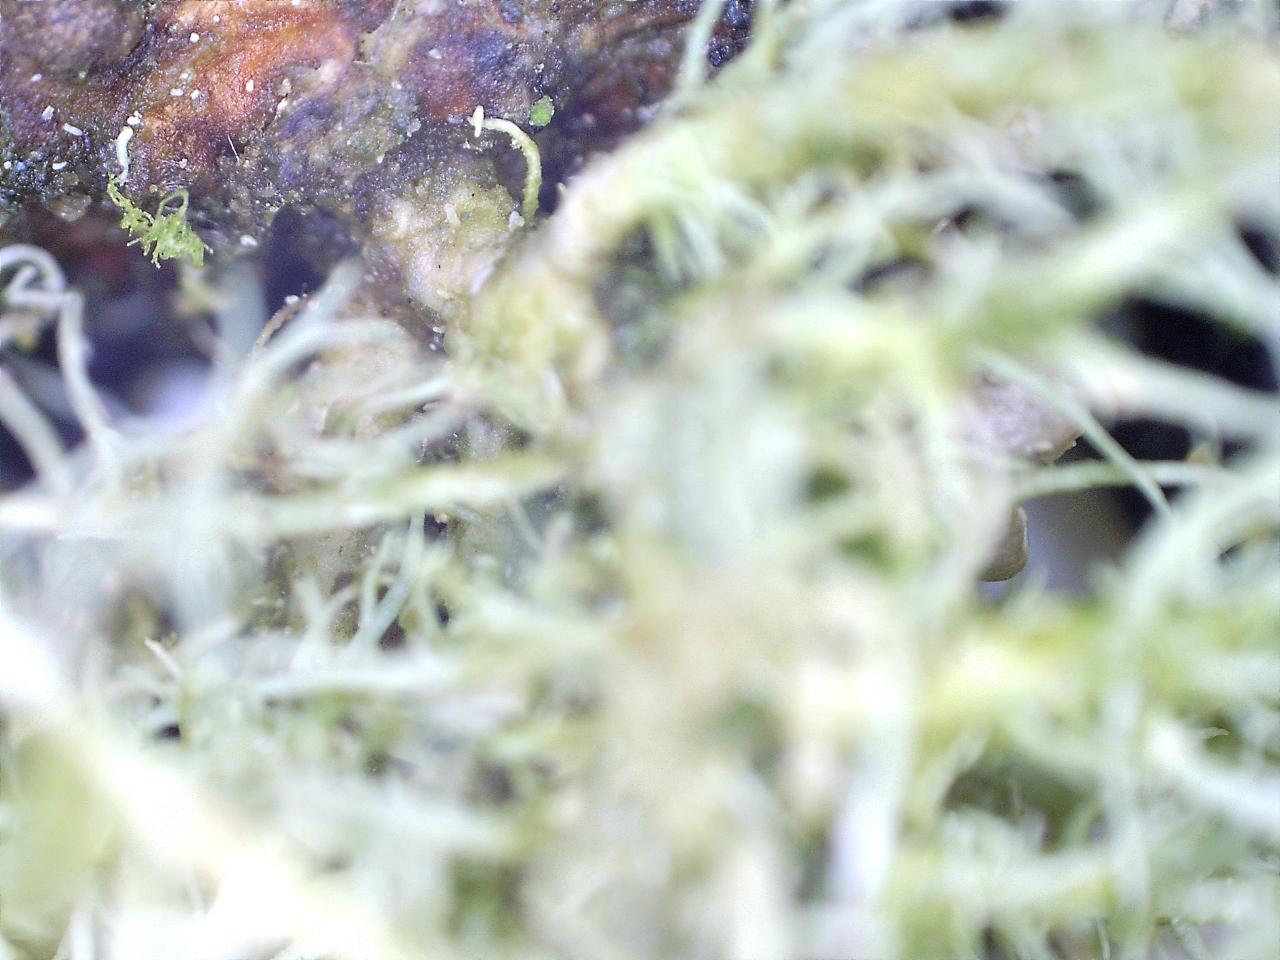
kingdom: Fungi
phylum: Ascomycota
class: Lecanoromycetes
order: Lecanorales
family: Parmeliaceae
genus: Usnea
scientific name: Usnea hirta
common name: liden skæglav
